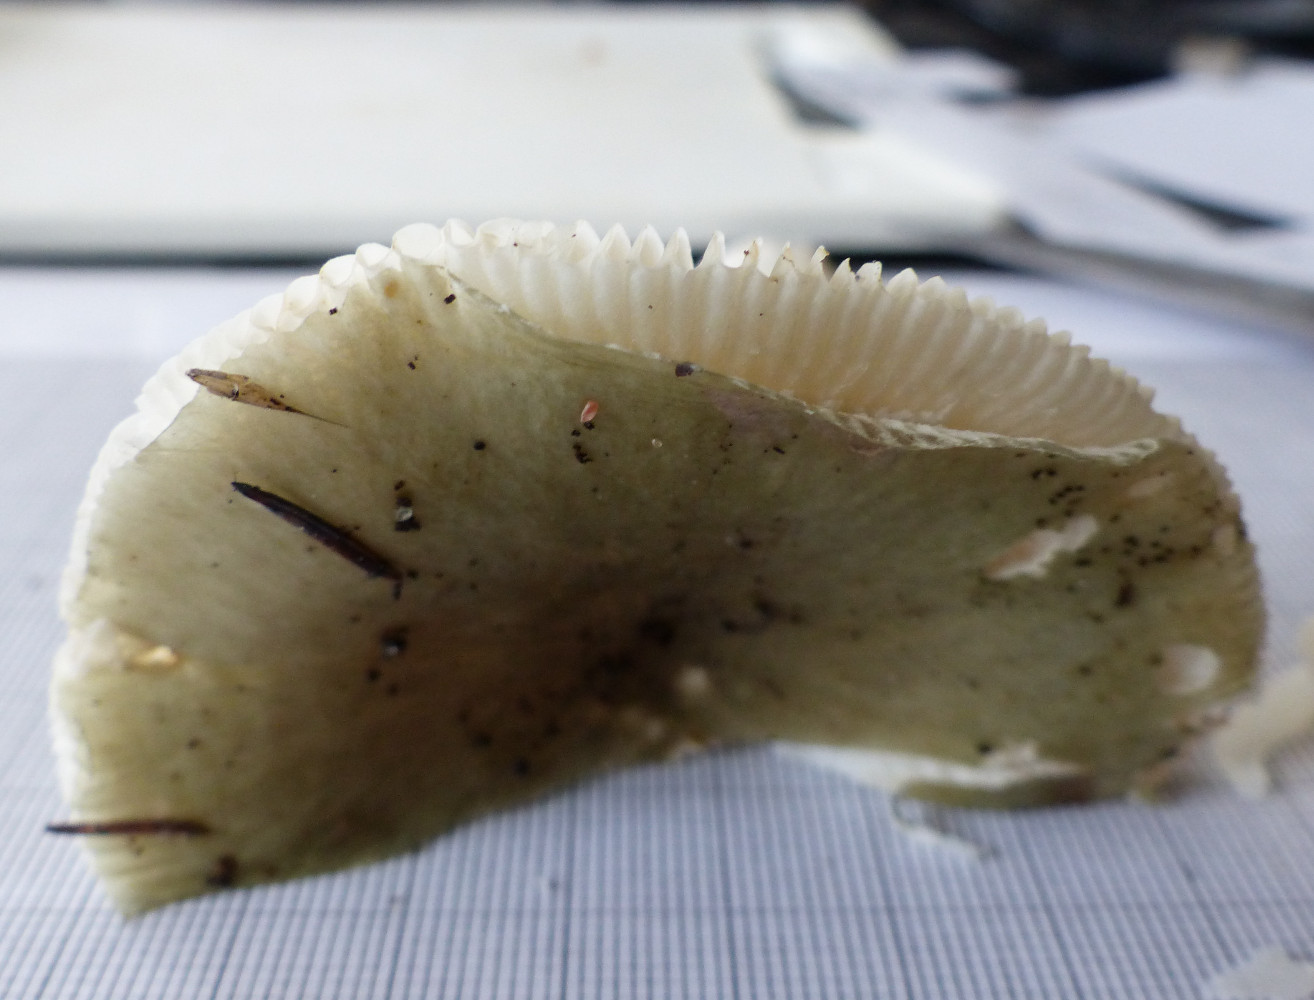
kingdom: Fungi
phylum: Basidiomycota
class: Agaricomycetes
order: Russulales
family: Russulaceae
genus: Russula
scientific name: Russula aeruginea
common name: græsgrøn skørhat
